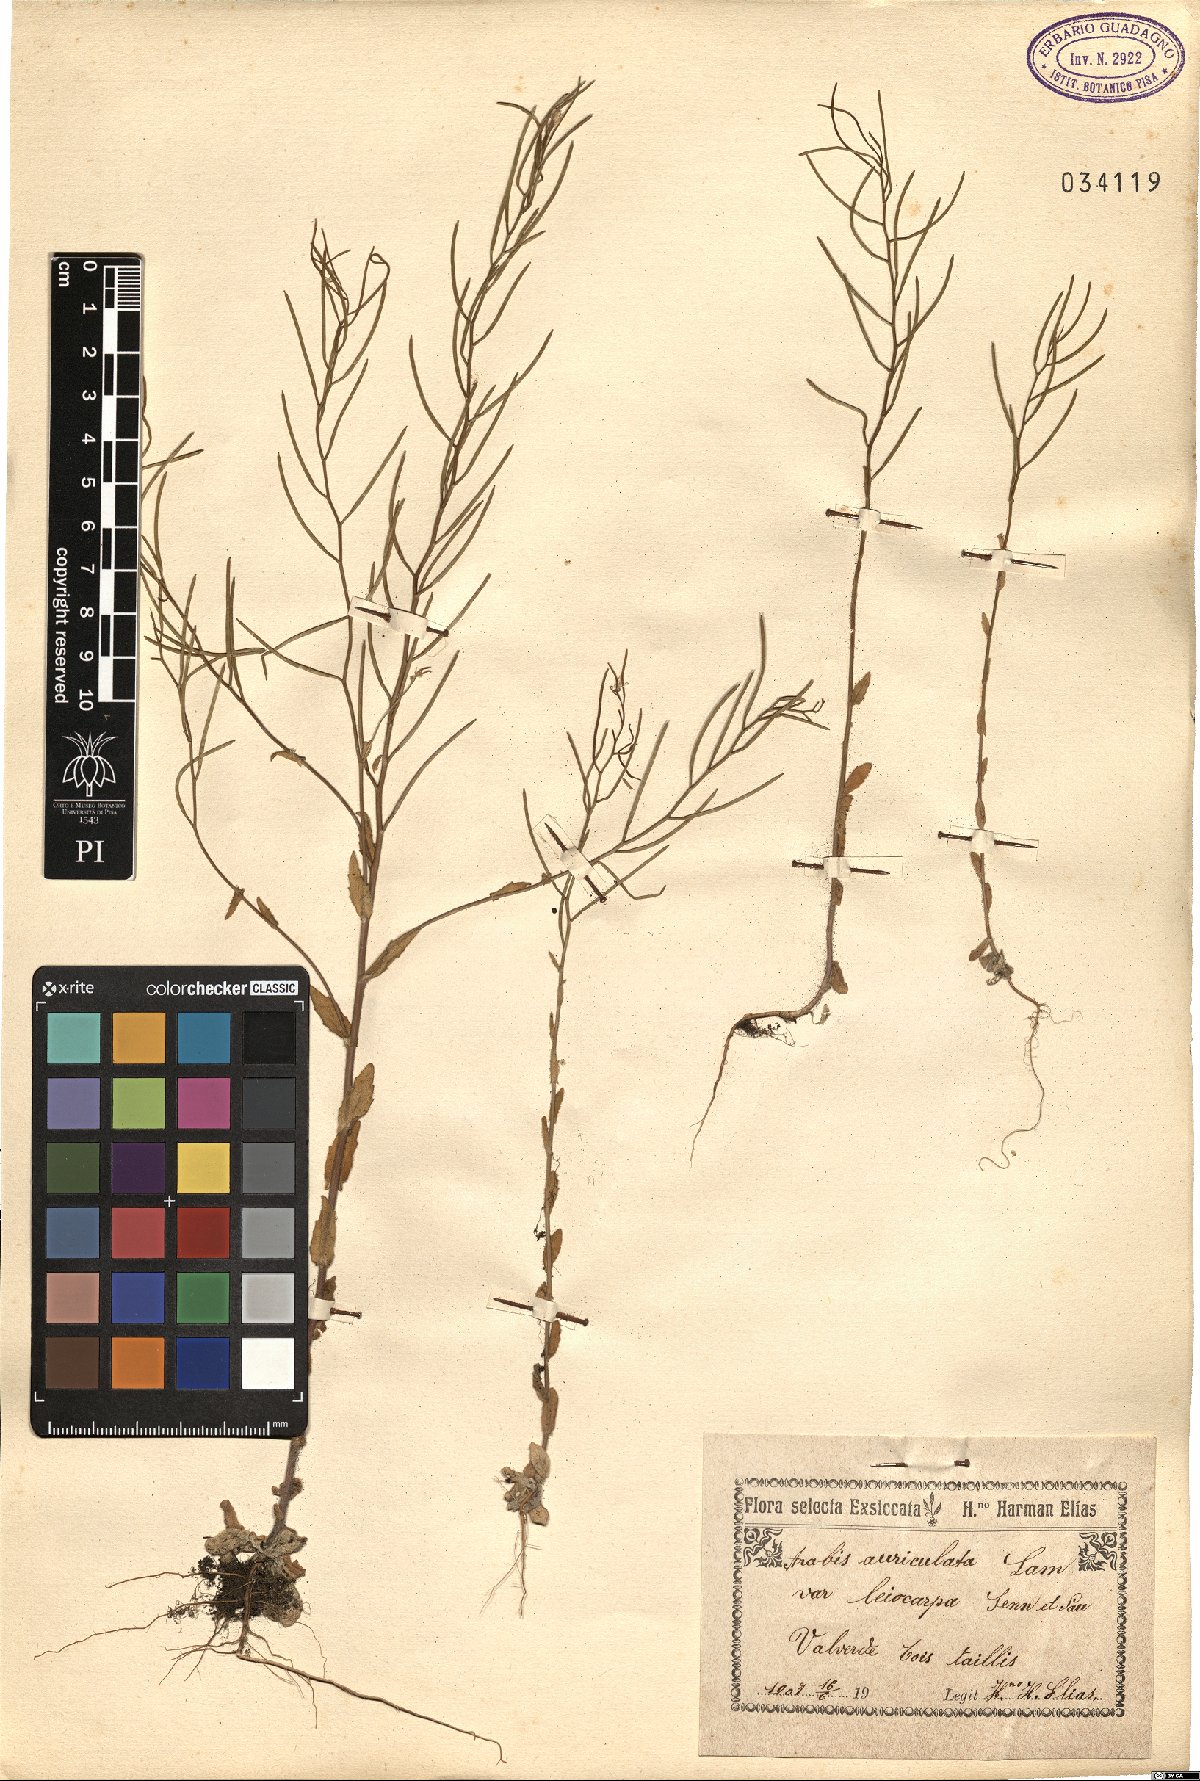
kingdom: Plantae
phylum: Tracheophyta
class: Magnoliopsida
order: Brassicales
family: Brassicaceae
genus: Arabis
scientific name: Arabis auriculata
